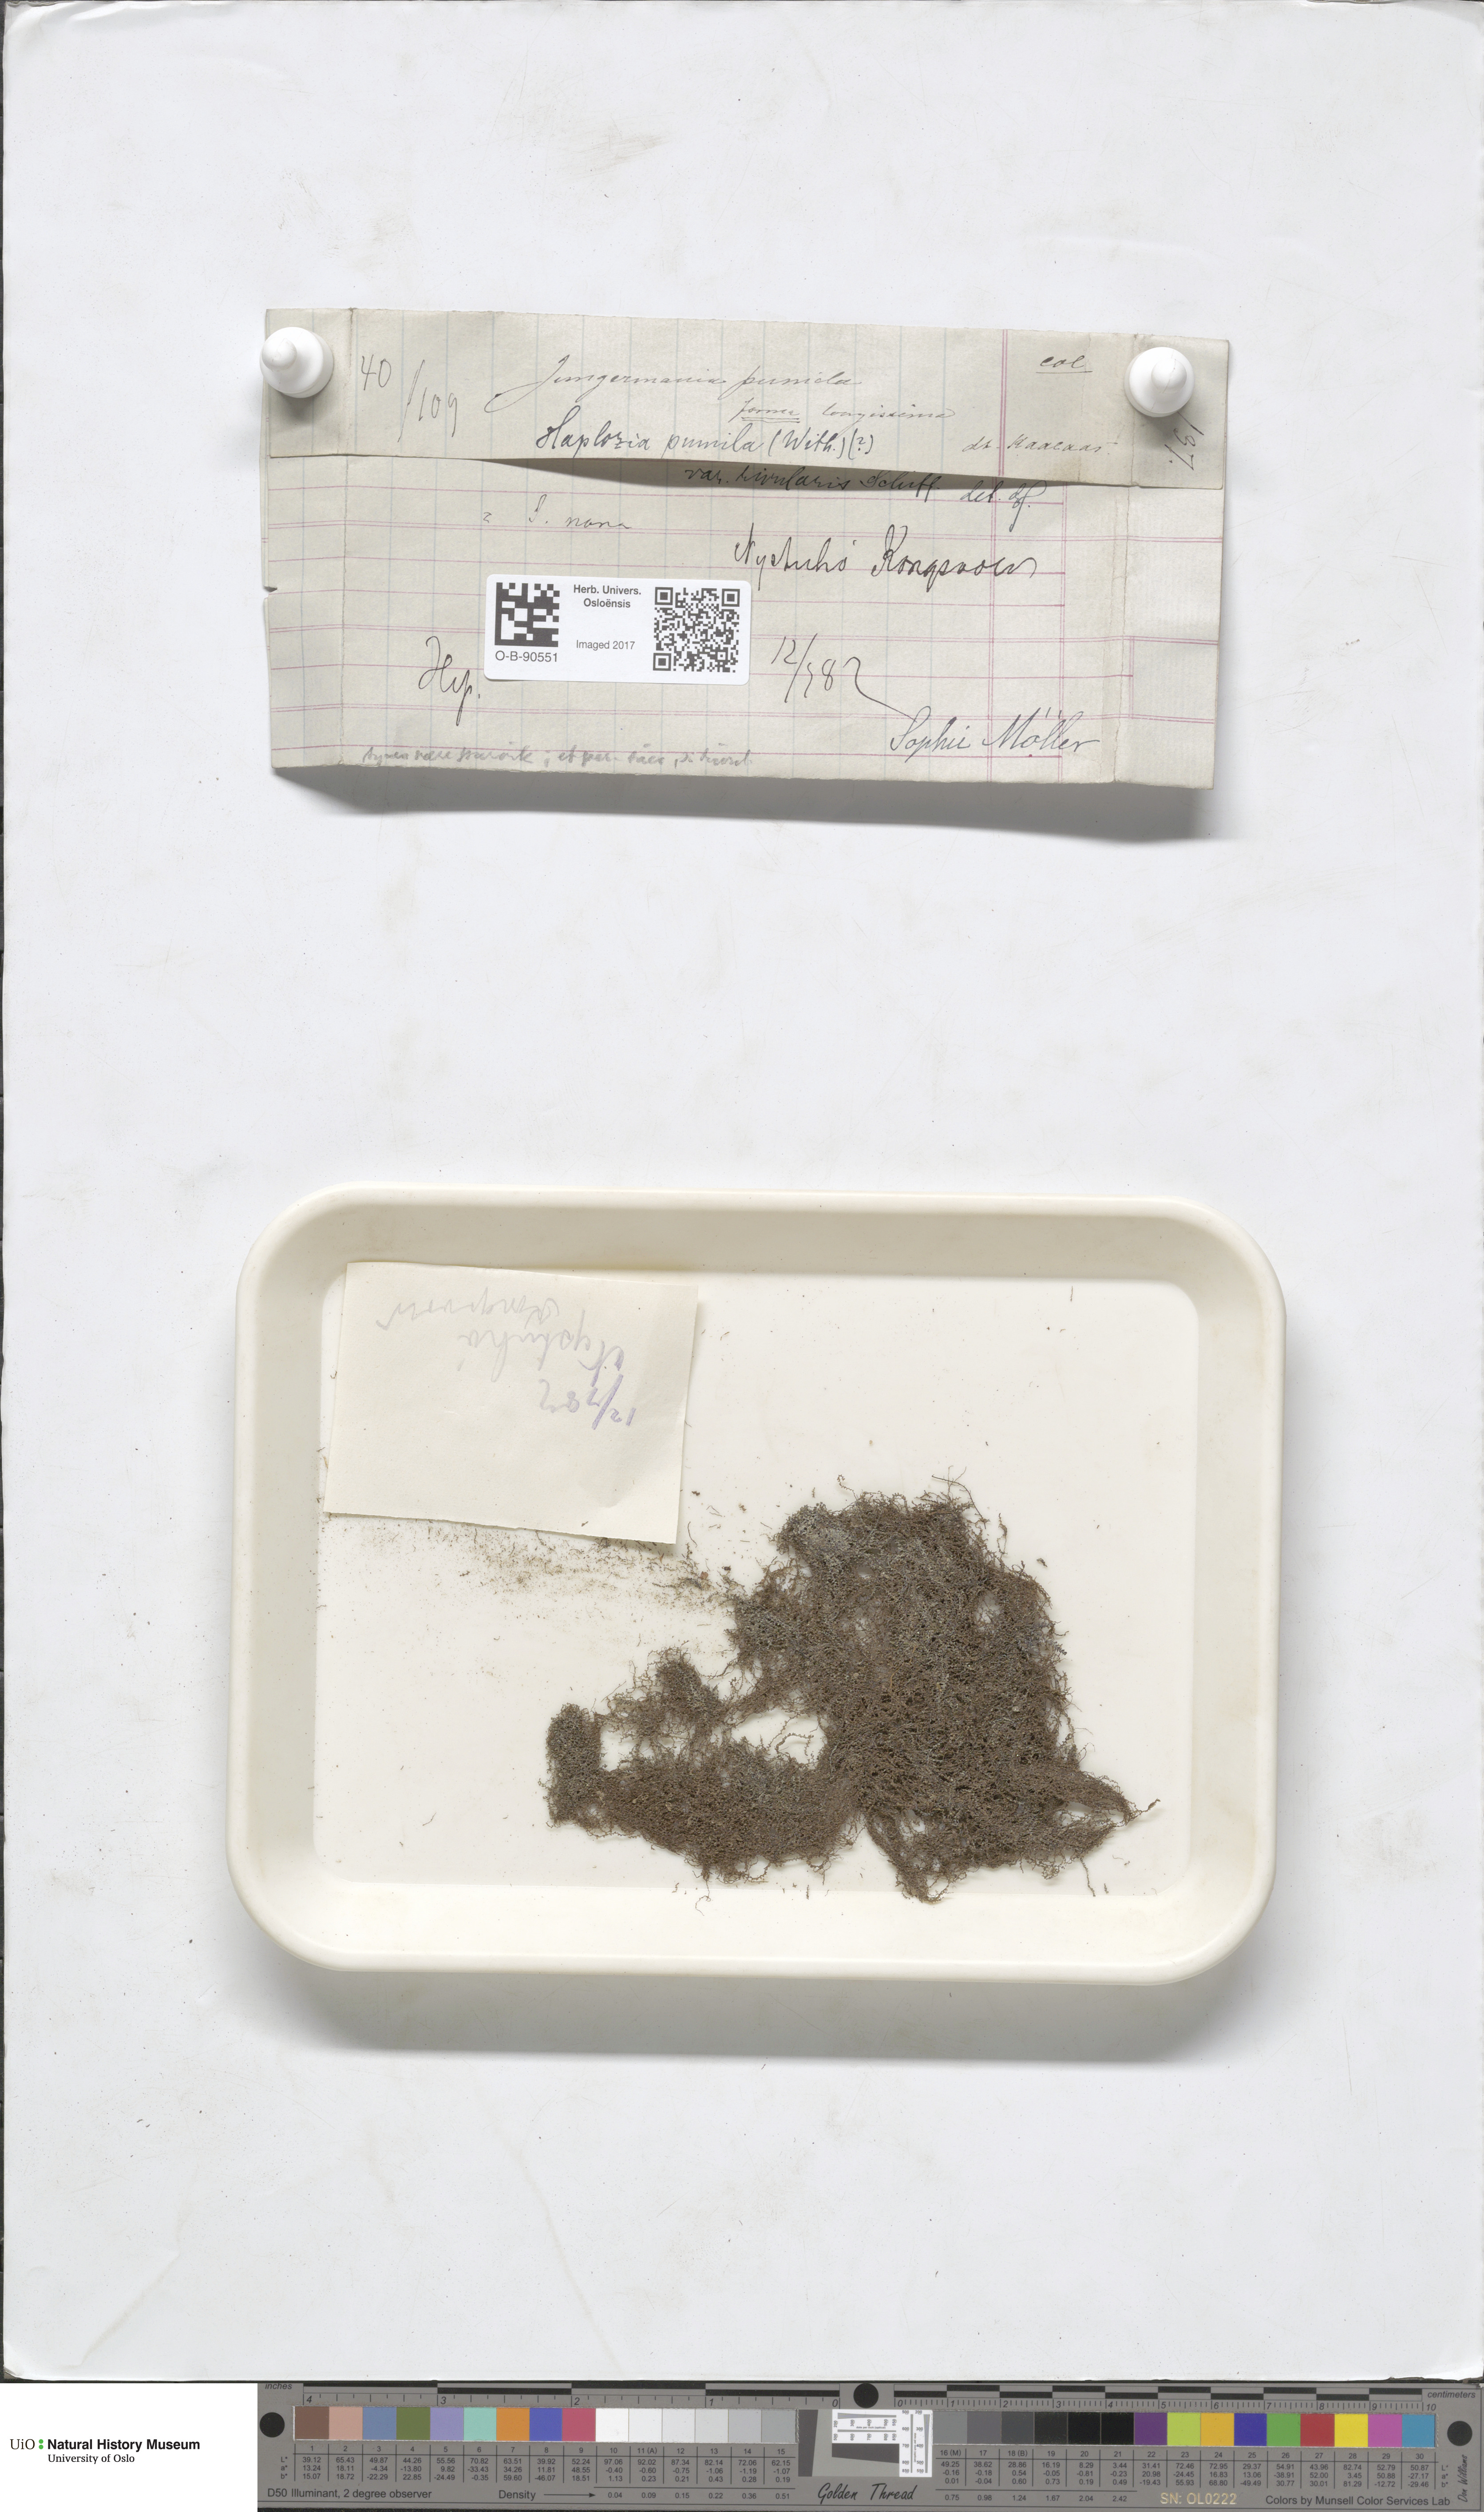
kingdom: Plantae
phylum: Marchantiophyta
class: Jungermanniopsida
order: Jungermanniales
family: Jungermanniaceae
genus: Jungermannia
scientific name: Jungermannia pumila
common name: Dwarf flapwort
